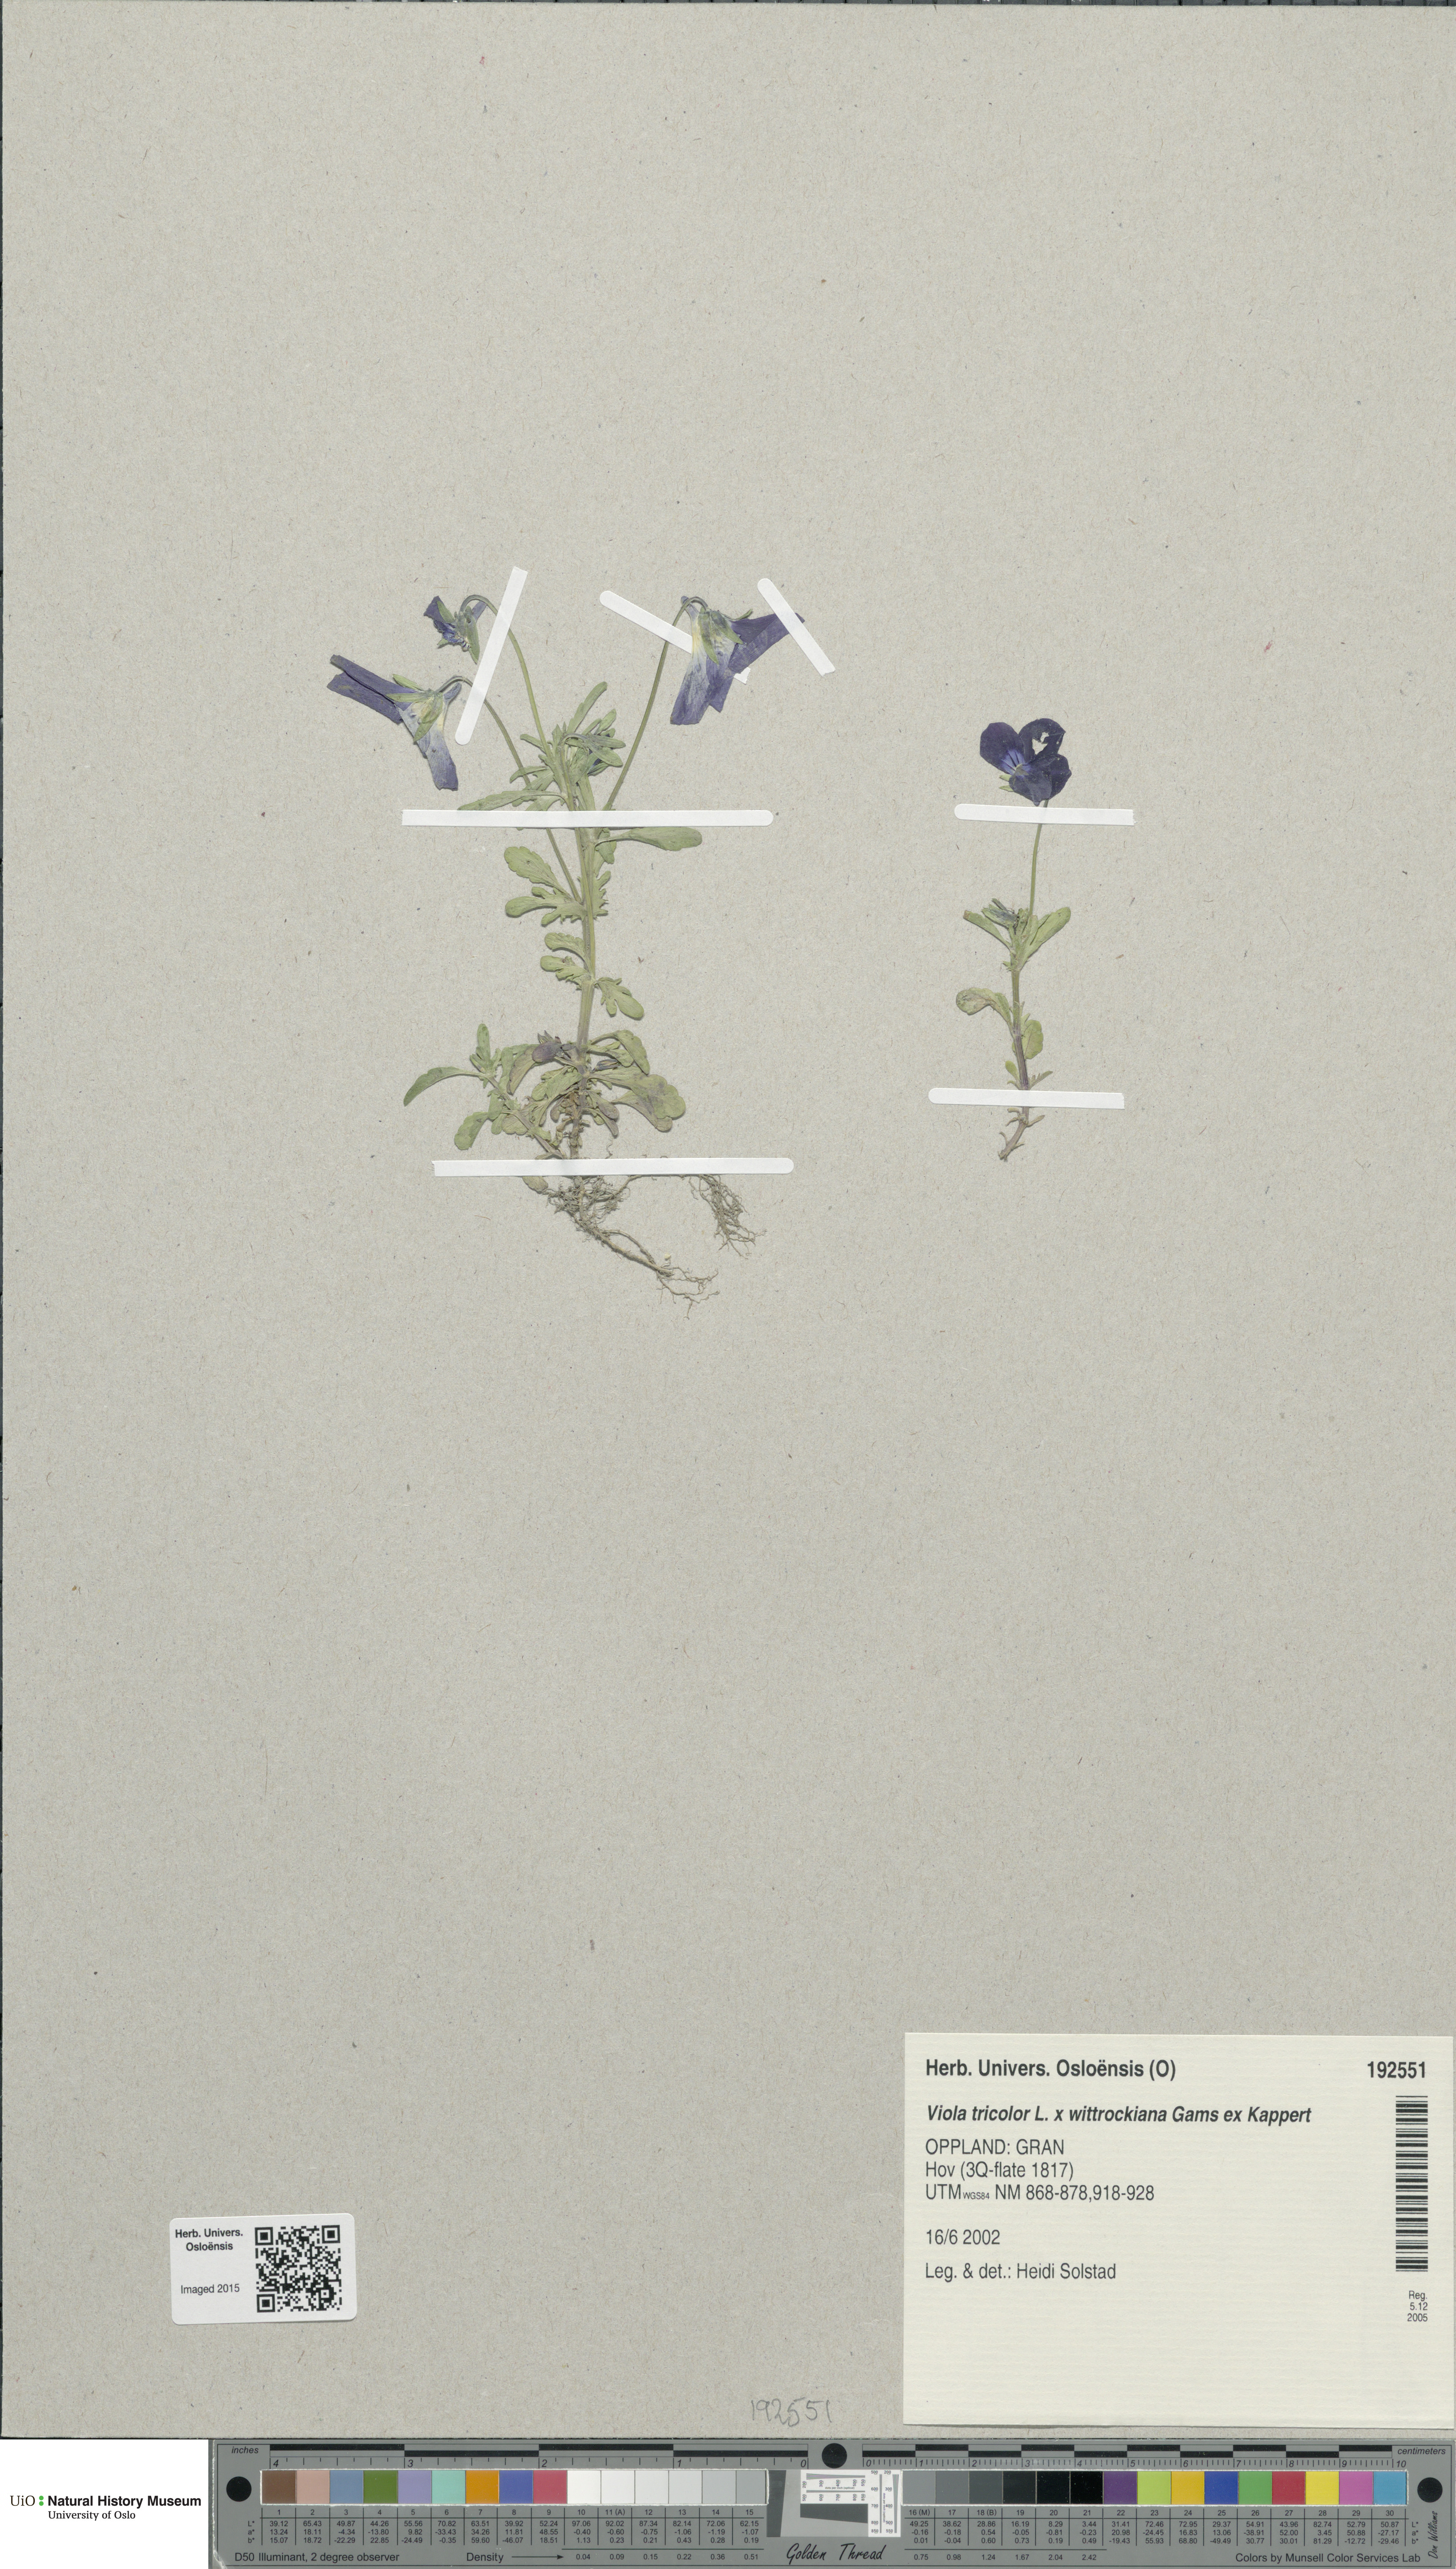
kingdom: Plantae
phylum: Tracheophyta
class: Magnoliopsida
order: Malpighiales
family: Violaceae
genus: Viola
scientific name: Viola
